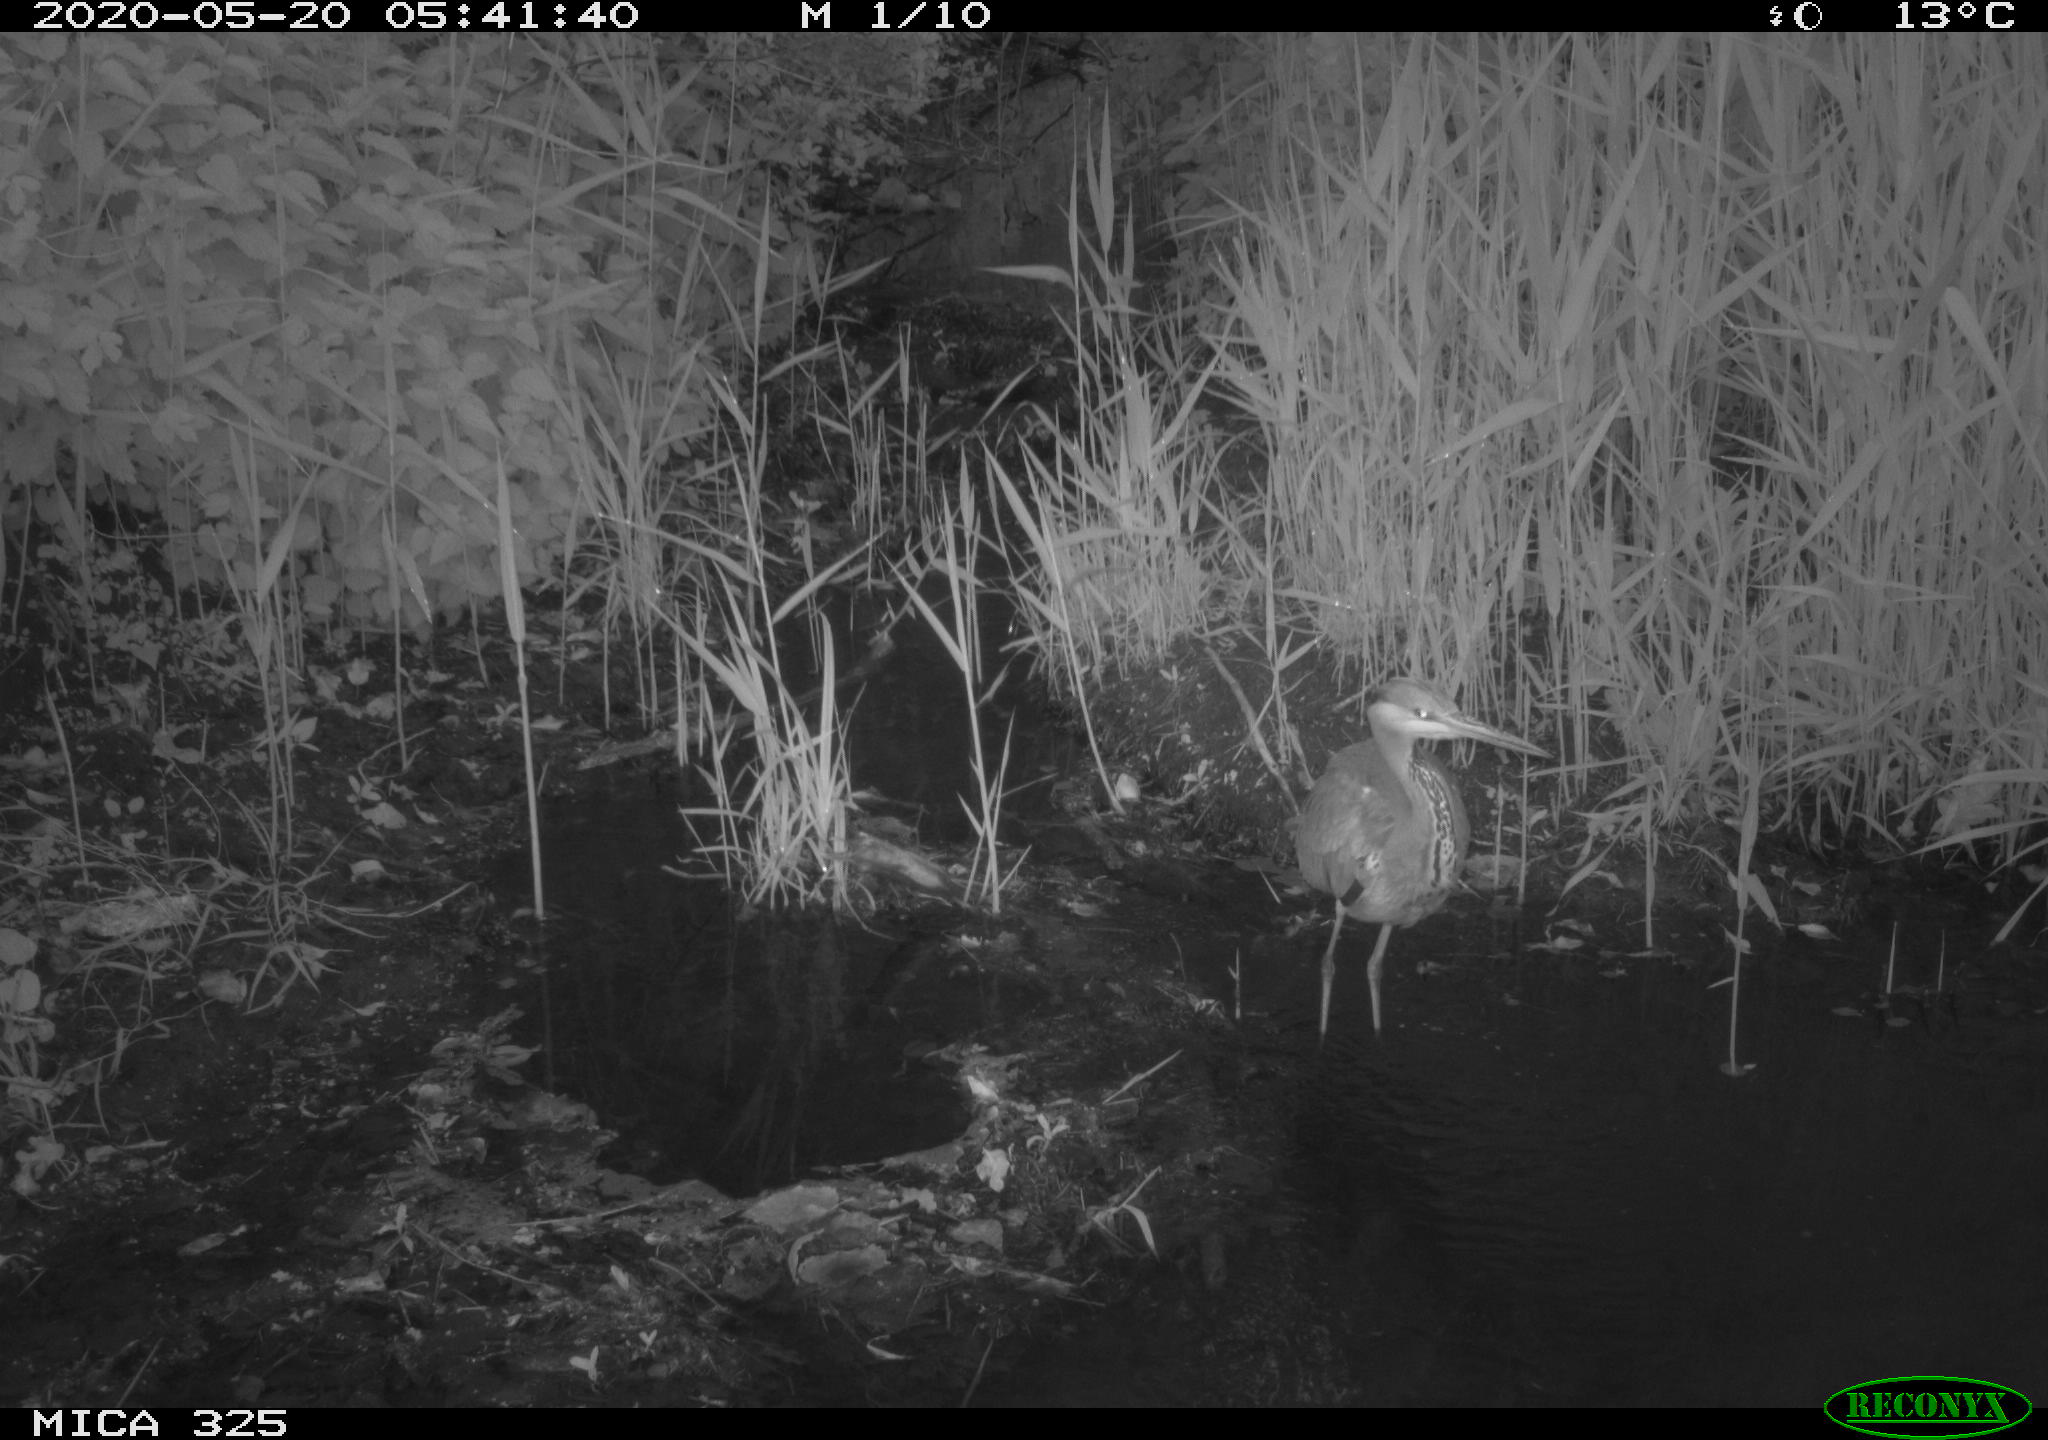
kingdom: Animalia
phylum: Chordata
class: Aves
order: Pelecaniformes
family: Ardeidae
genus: Ardea
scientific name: Ardea cinerea
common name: Grey heron
